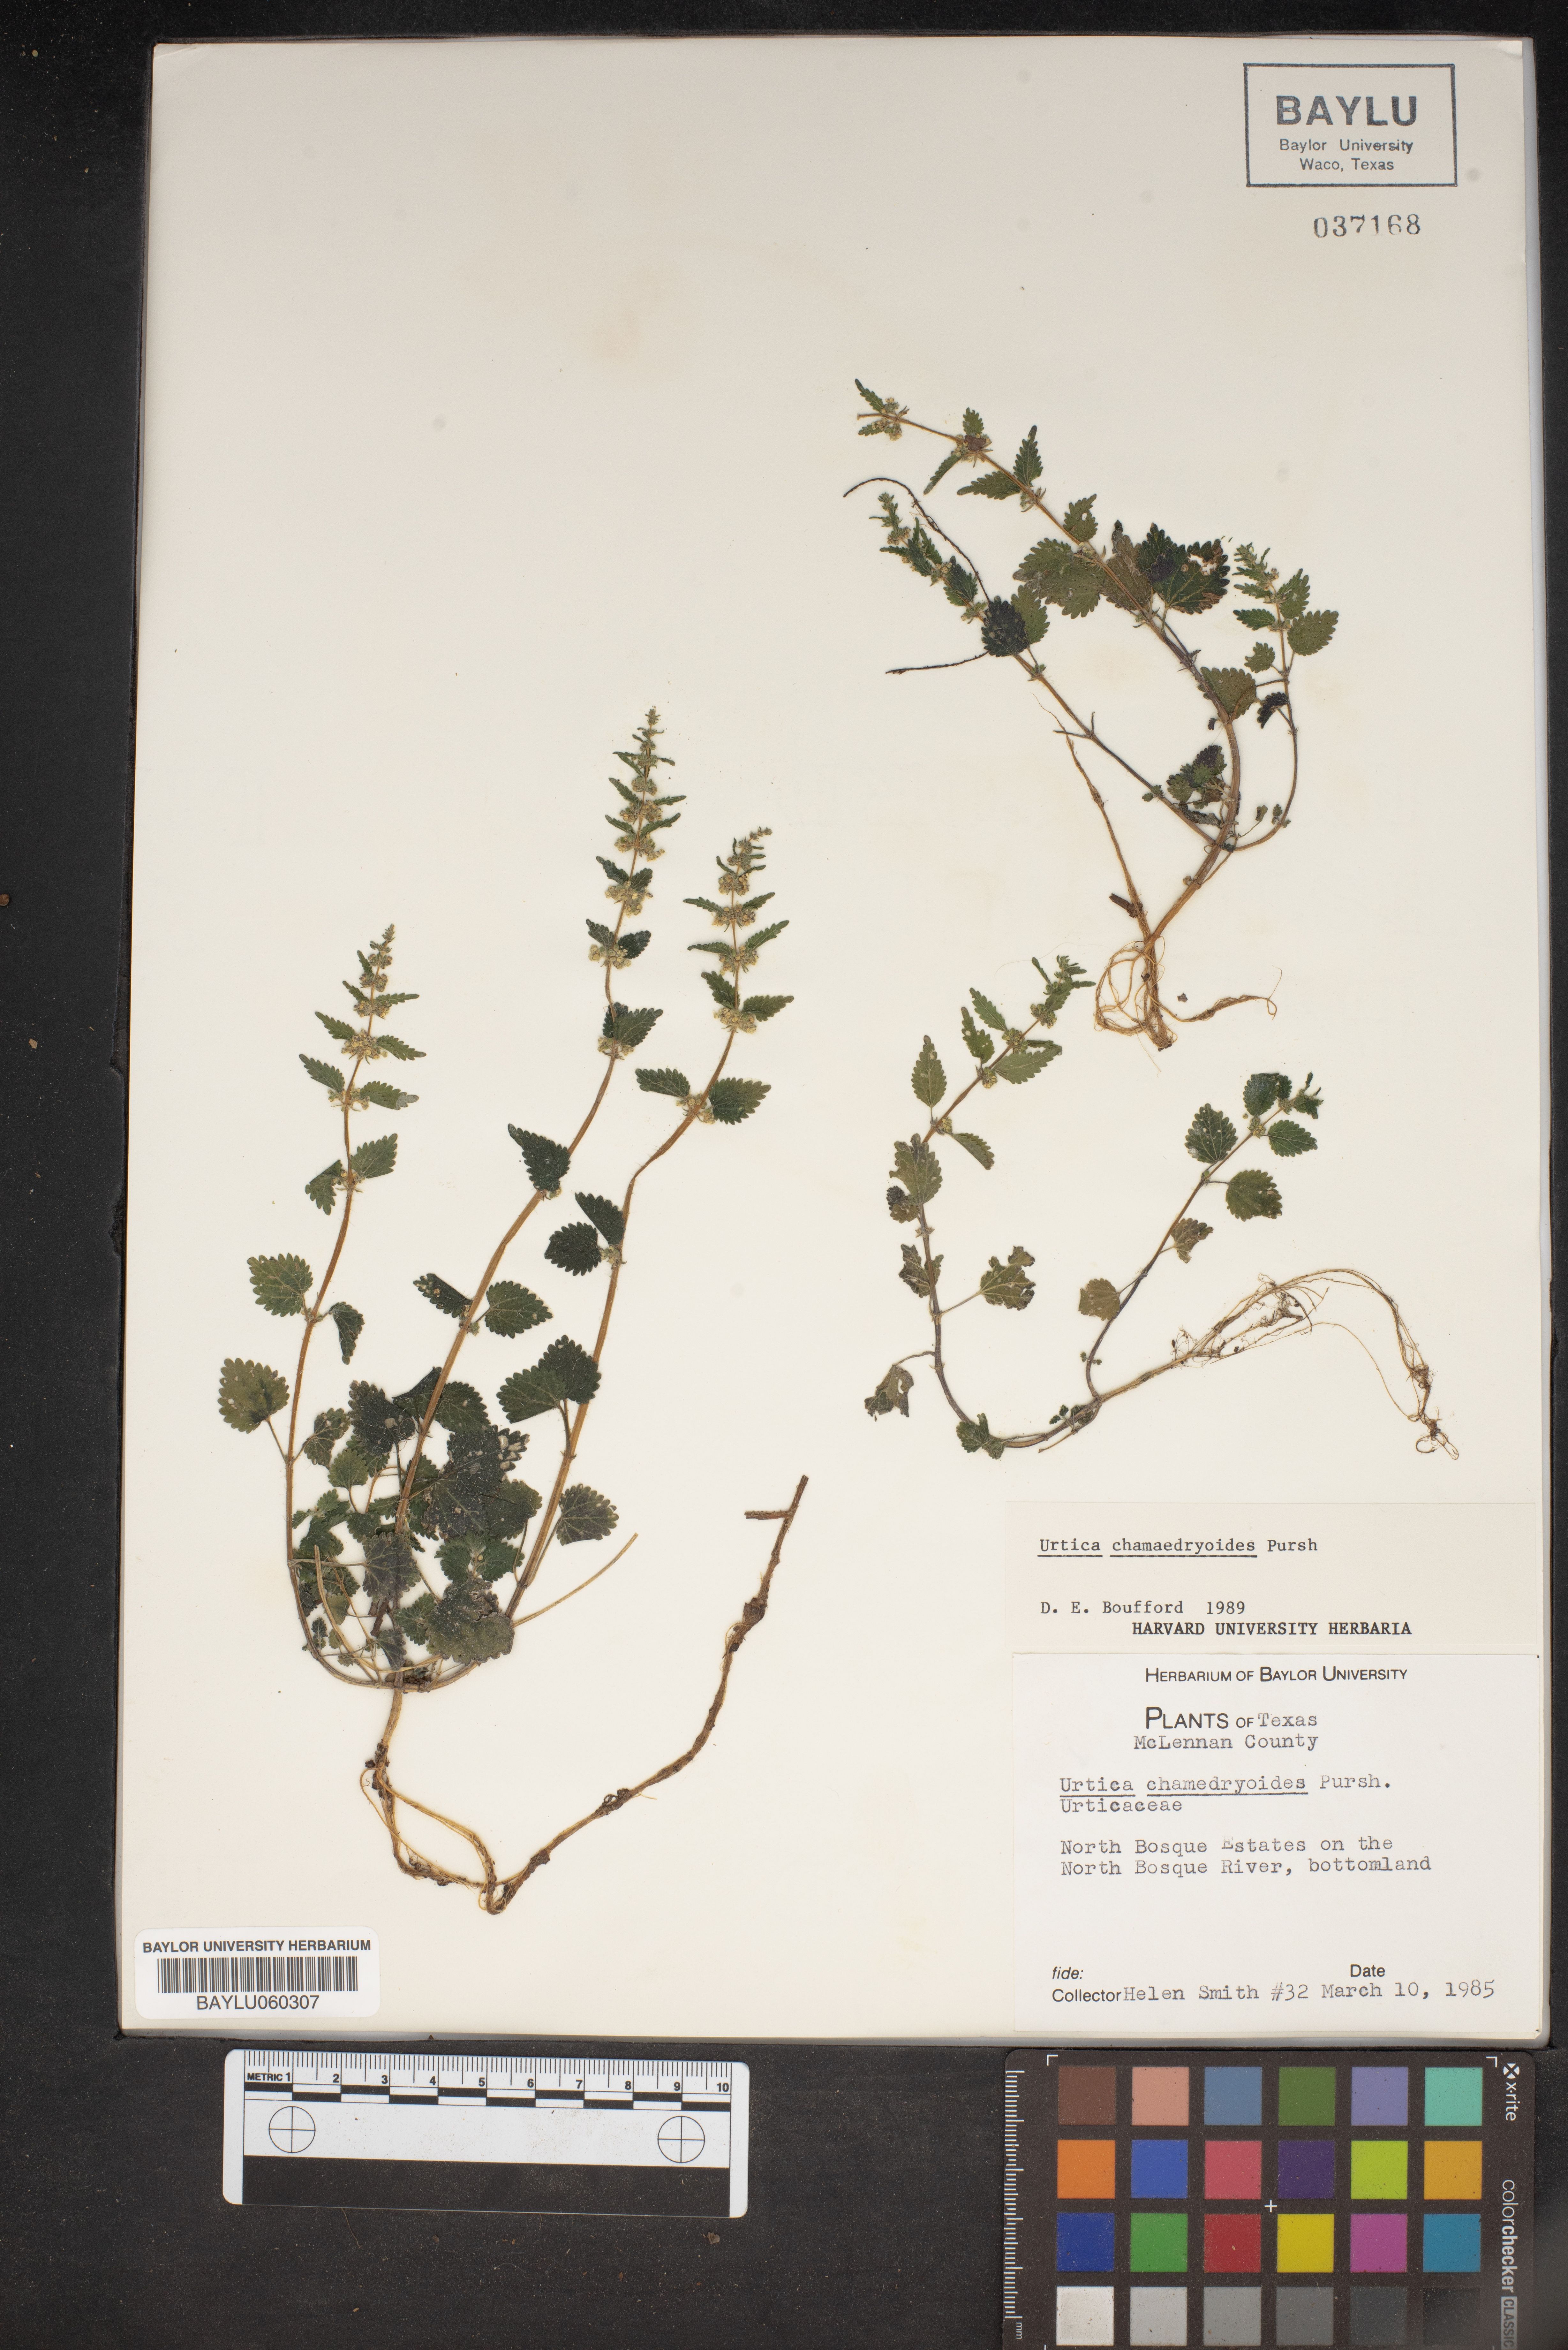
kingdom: Plantae
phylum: Tracheophyta
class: Magnoliopsida
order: Rosales
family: Urticaceae
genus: Urtica
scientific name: Urtica chamaedryoides
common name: Heart-leaf nettle
